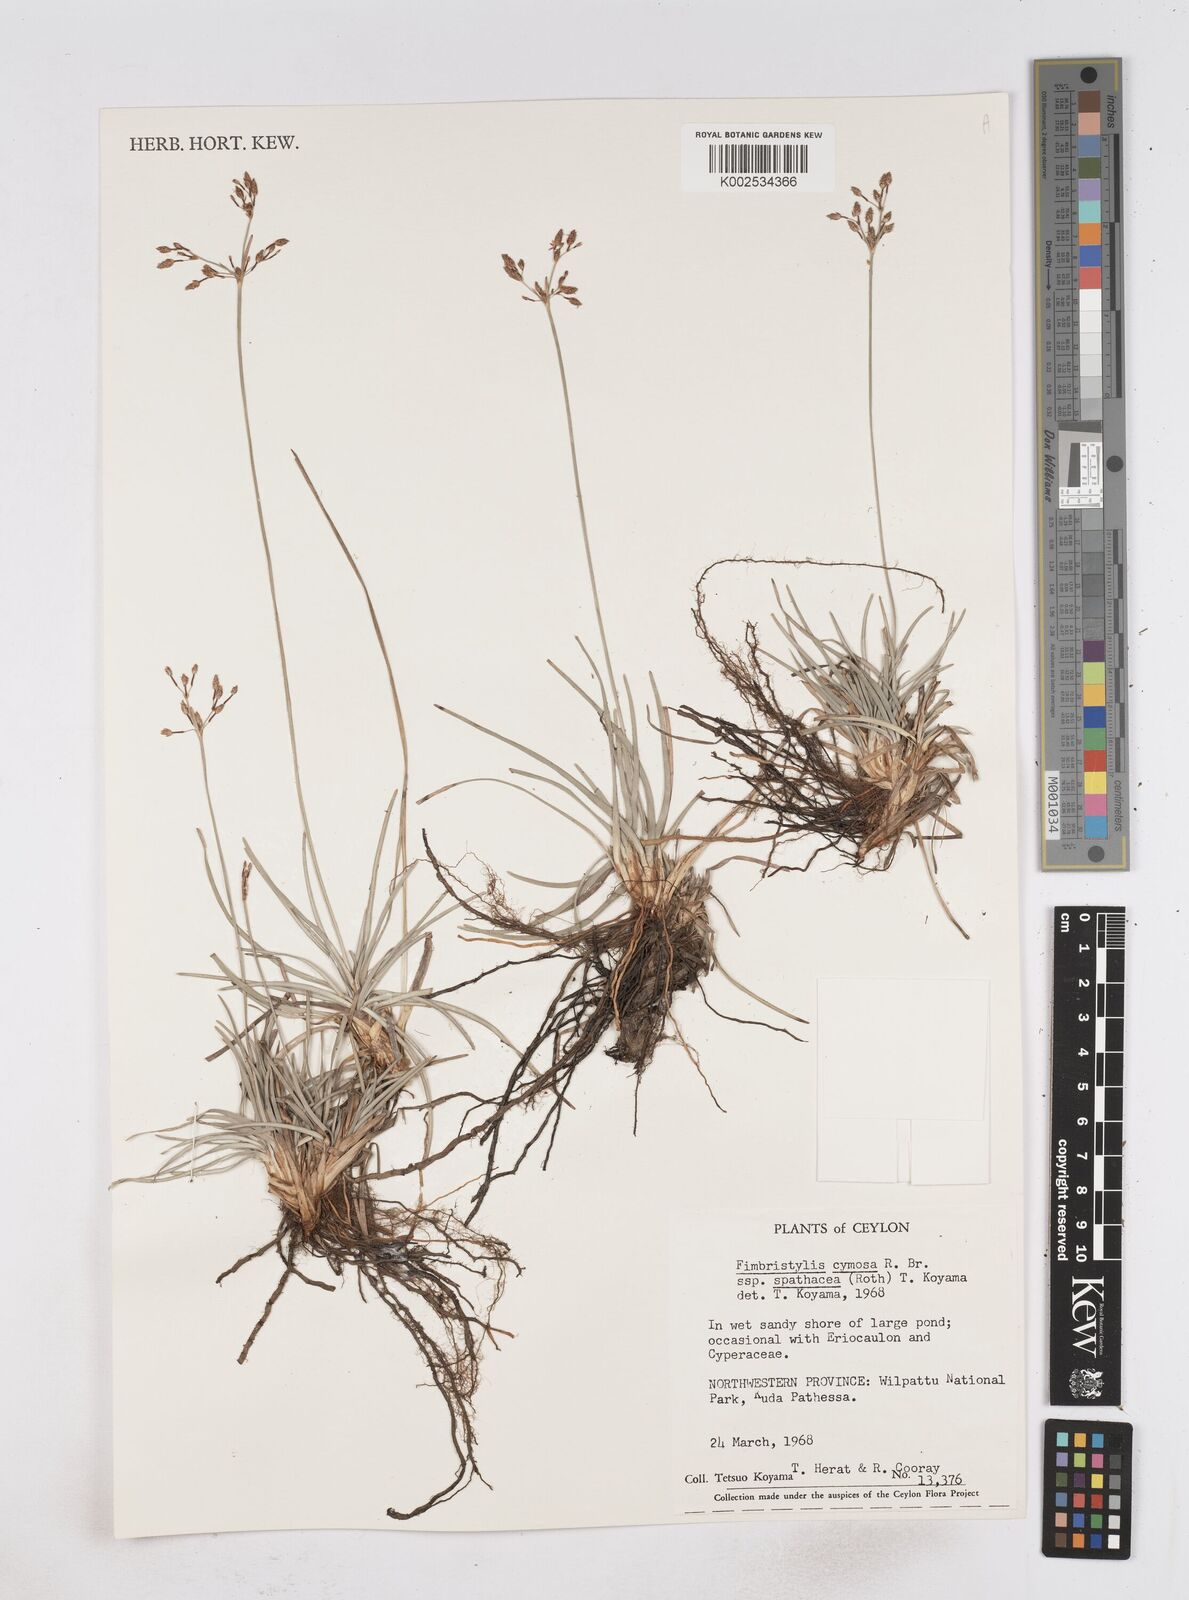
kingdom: Plantae
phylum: Tracheophyta
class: Liliopsida
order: Poales
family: Cyperaceae
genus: Fimbristylis
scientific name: Fimbristylis cymosa
